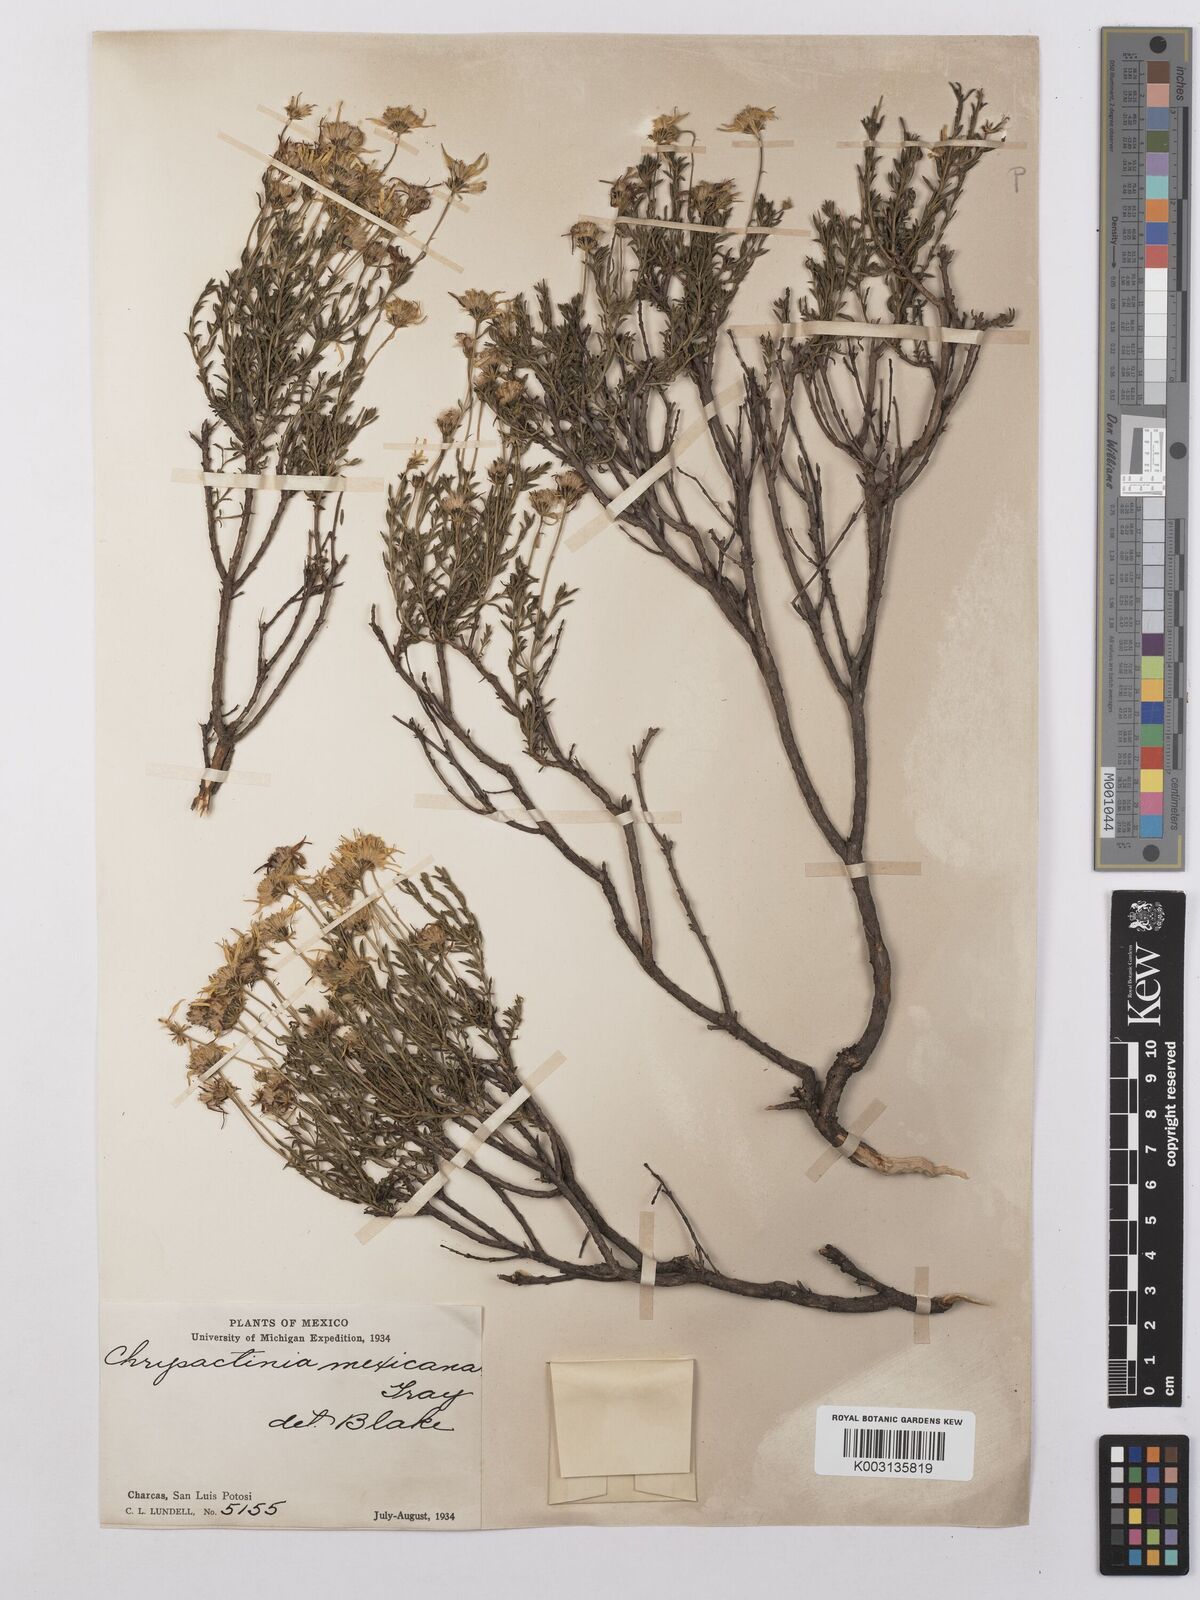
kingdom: Plantae
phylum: Tracheophyta
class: Magnoliopsida
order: Asterales
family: Asteraceae
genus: Chrysactinia
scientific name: Chrysactinia mexicana
